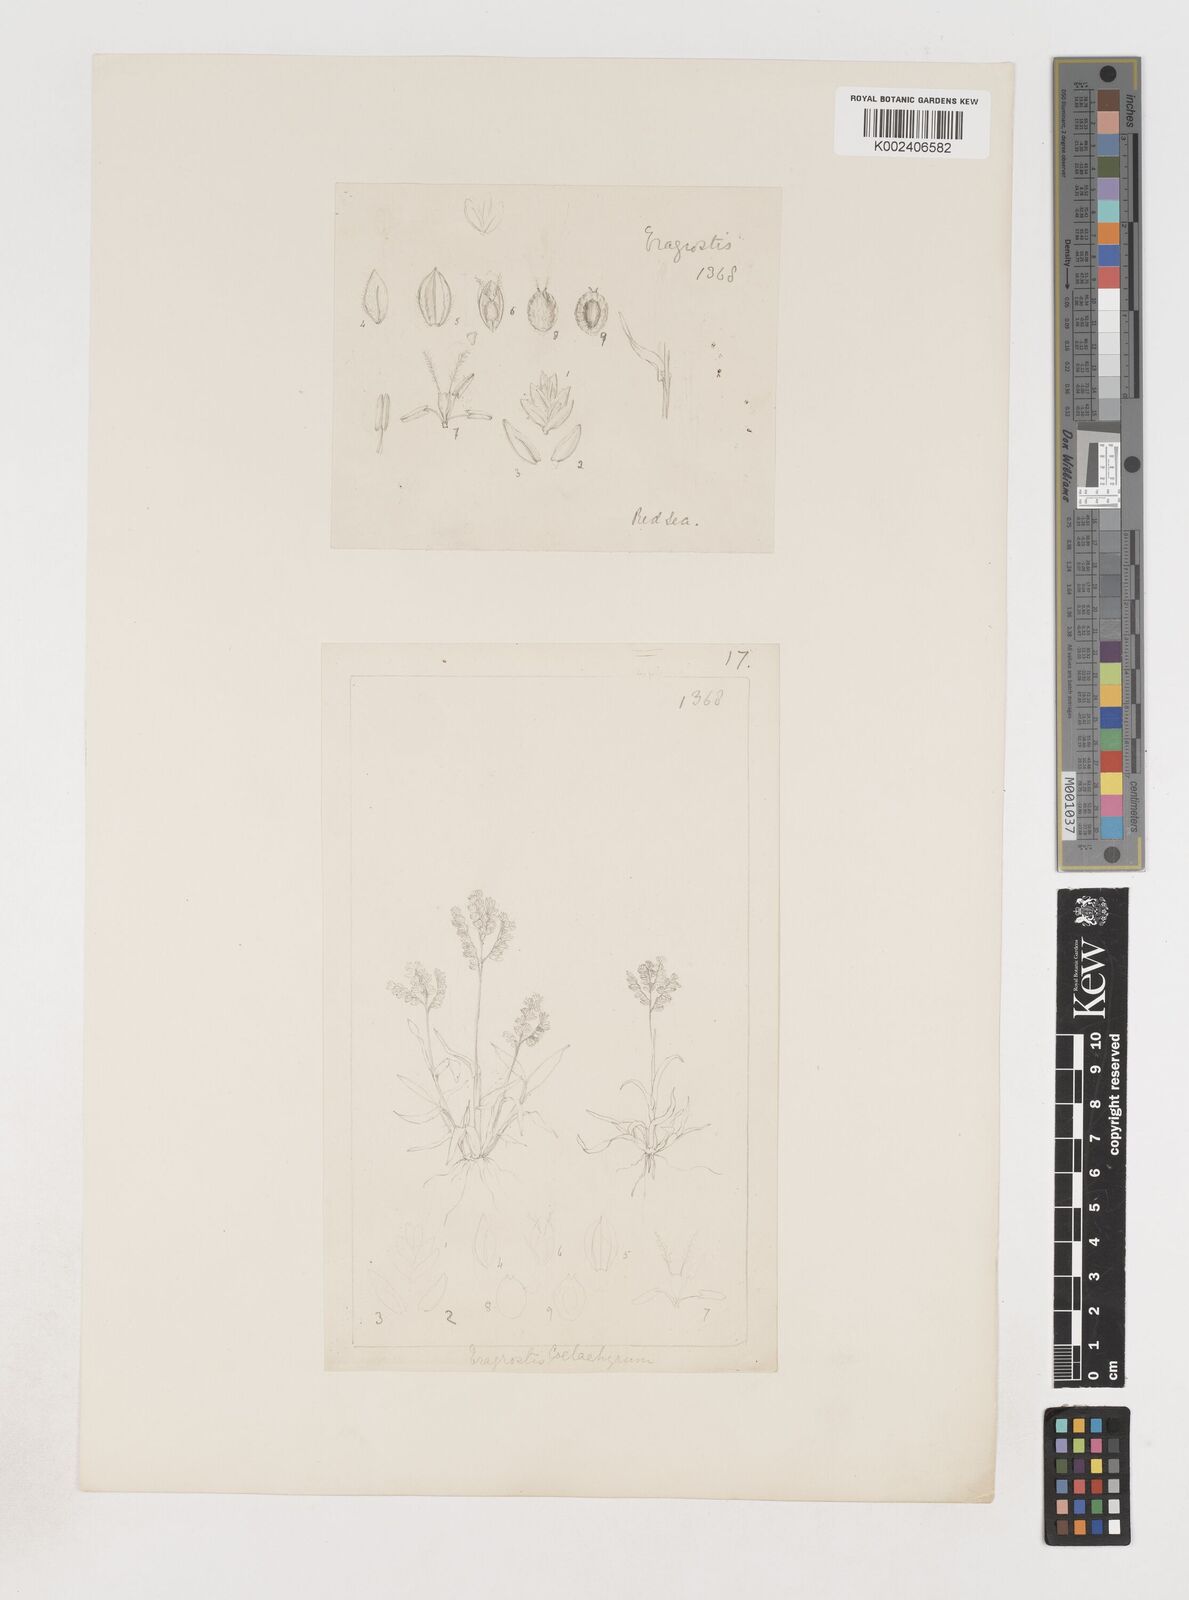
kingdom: Plantae
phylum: Tracheophyta
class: Liliopsida
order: Poales
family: Poaceae
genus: Coelachyrum
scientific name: Coelachyrum brevifolium
